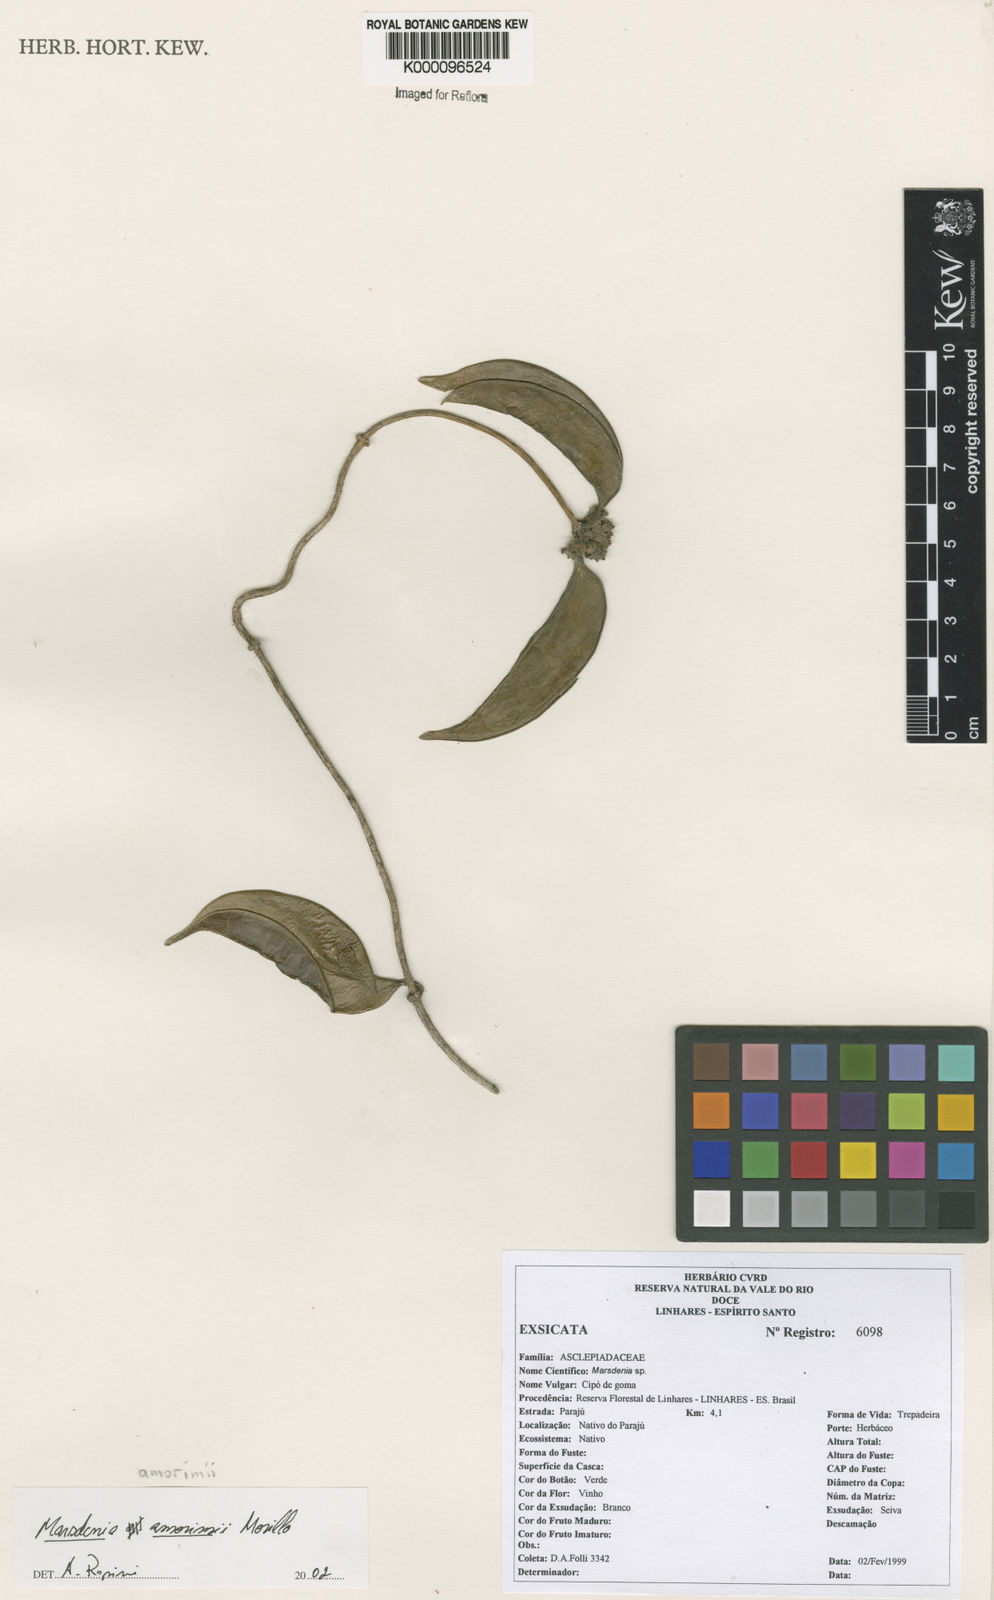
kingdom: Plantae
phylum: Tracheophyta
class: Magnoliopsida
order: Gentianales
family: Apocynaceae
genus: Ruehssia
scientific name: Ruehssia amorimii
